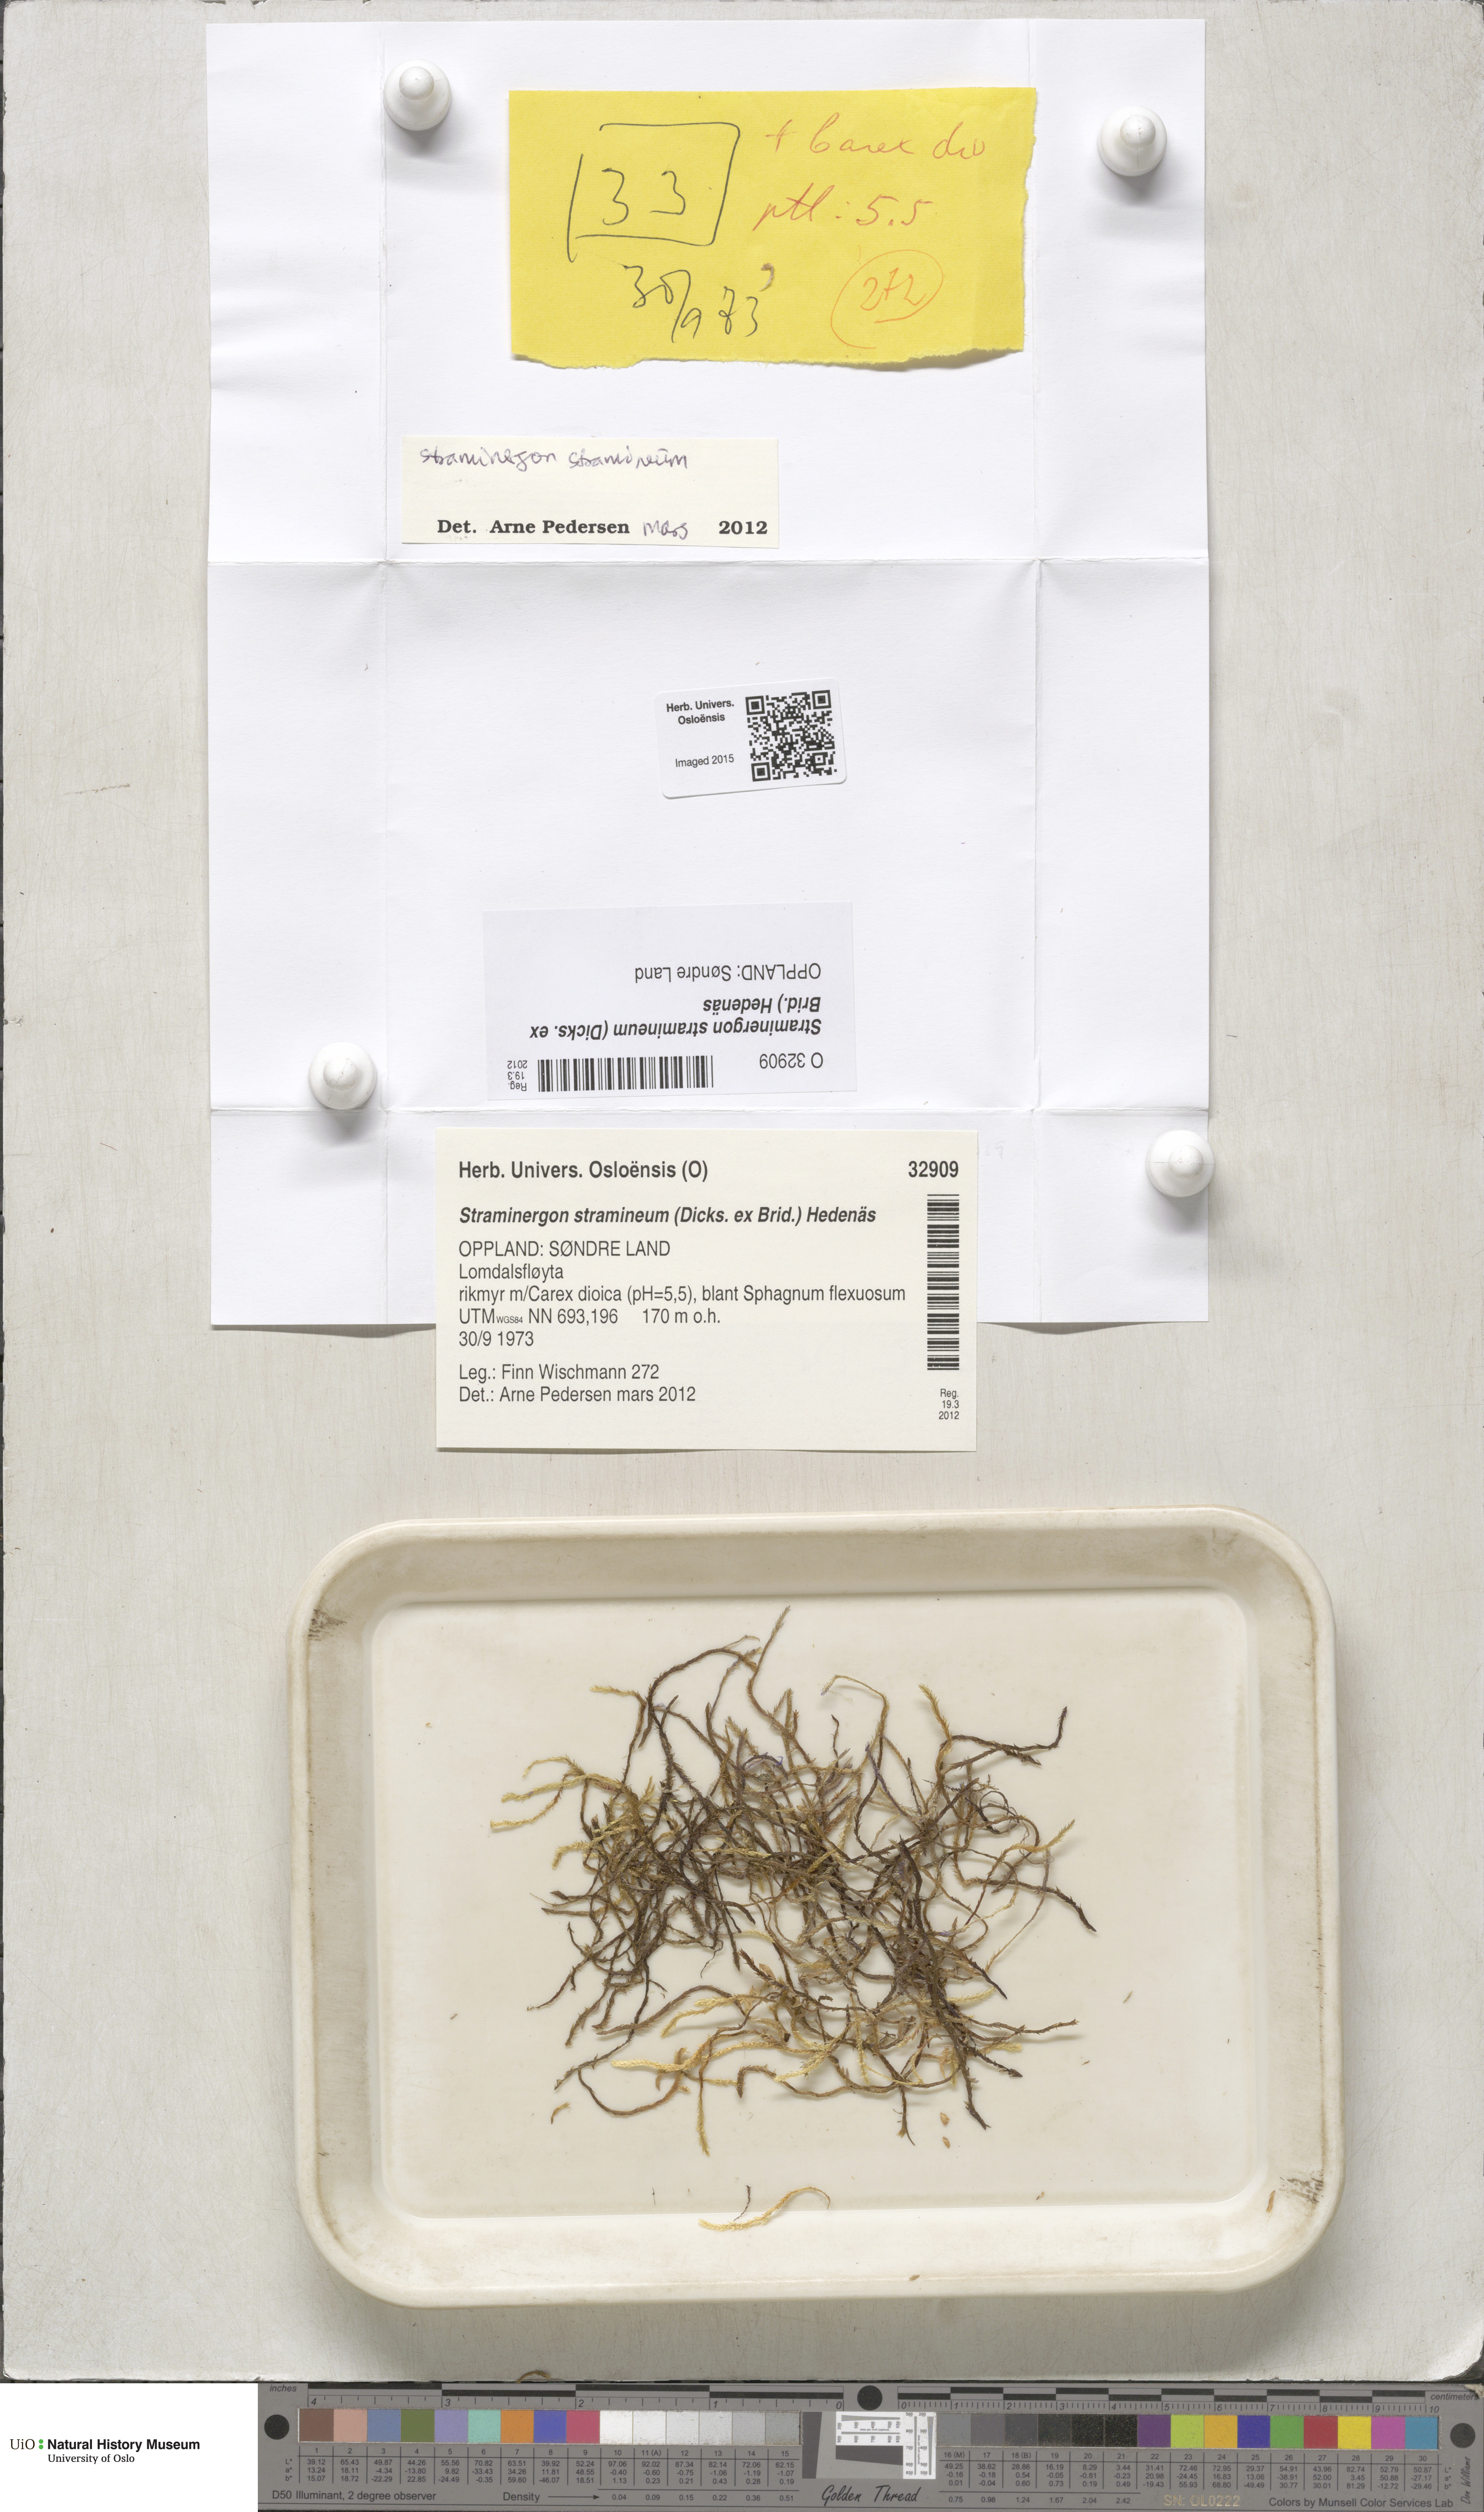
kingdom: Plantae
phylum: Bryophyta
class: Bryopsida
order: Hypnales
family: Calliergonaceae
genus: Straminergon
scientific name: Straminergon stramineum
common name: Straw moss
